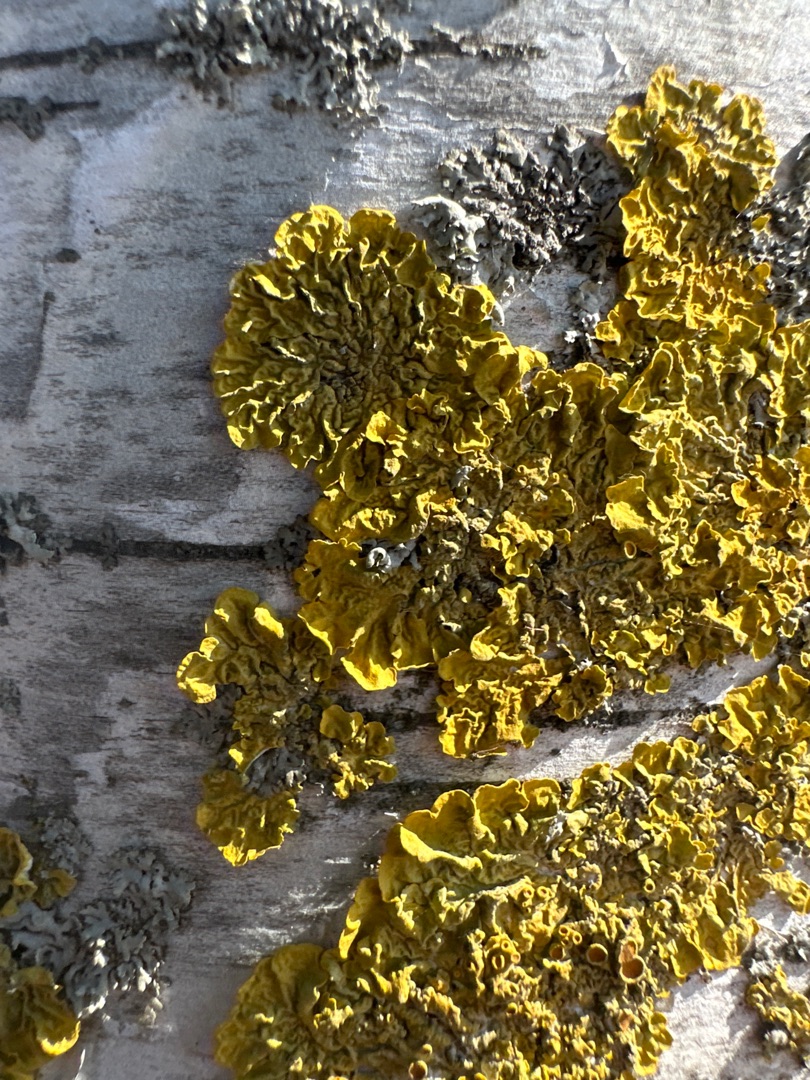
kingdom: Fungi
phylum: Ascomycota
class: Lecanoromycetes
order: Teloschistales
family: Teloschistaceae
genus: Xanthoria
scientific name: Xanthoria parietina
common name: Almindelig væggelav
